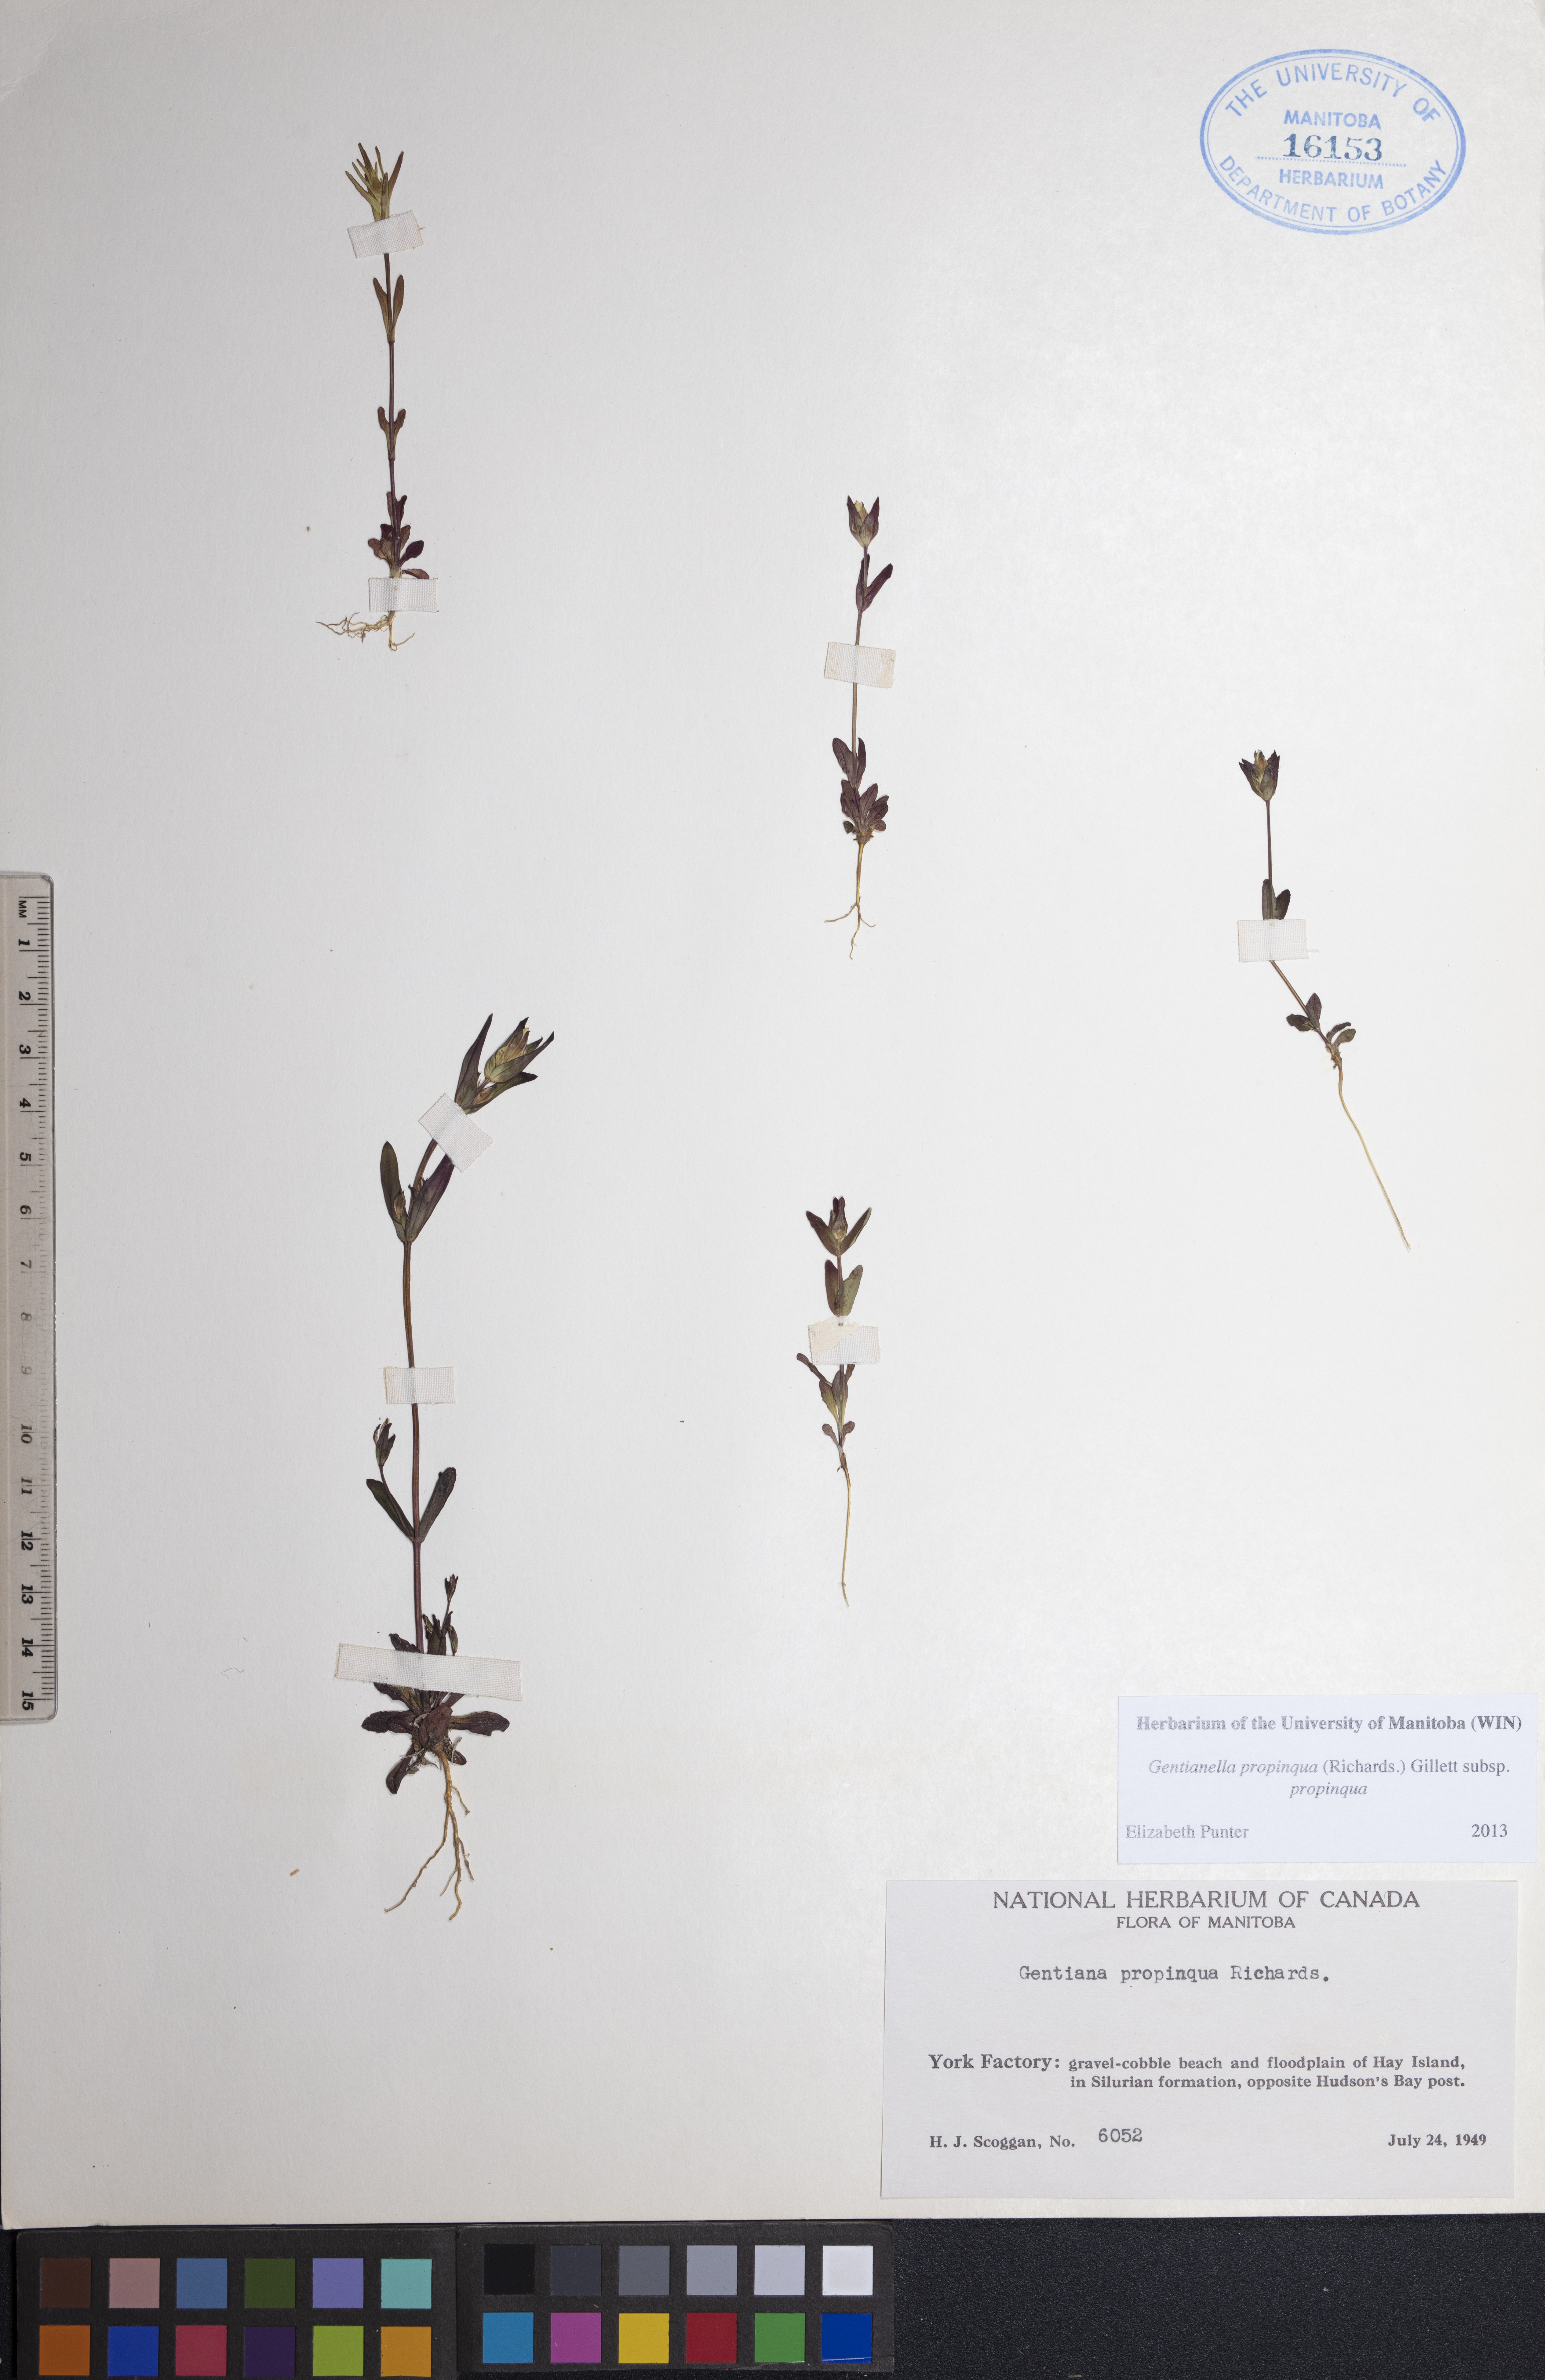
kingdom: Plantae
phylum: Tracheophyta
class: Magnoliopsida
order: Gentianales
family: Gentianaceae
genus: Gentianella
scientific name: Gentianella propinqua
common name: Four-parted dwarf-gentian
